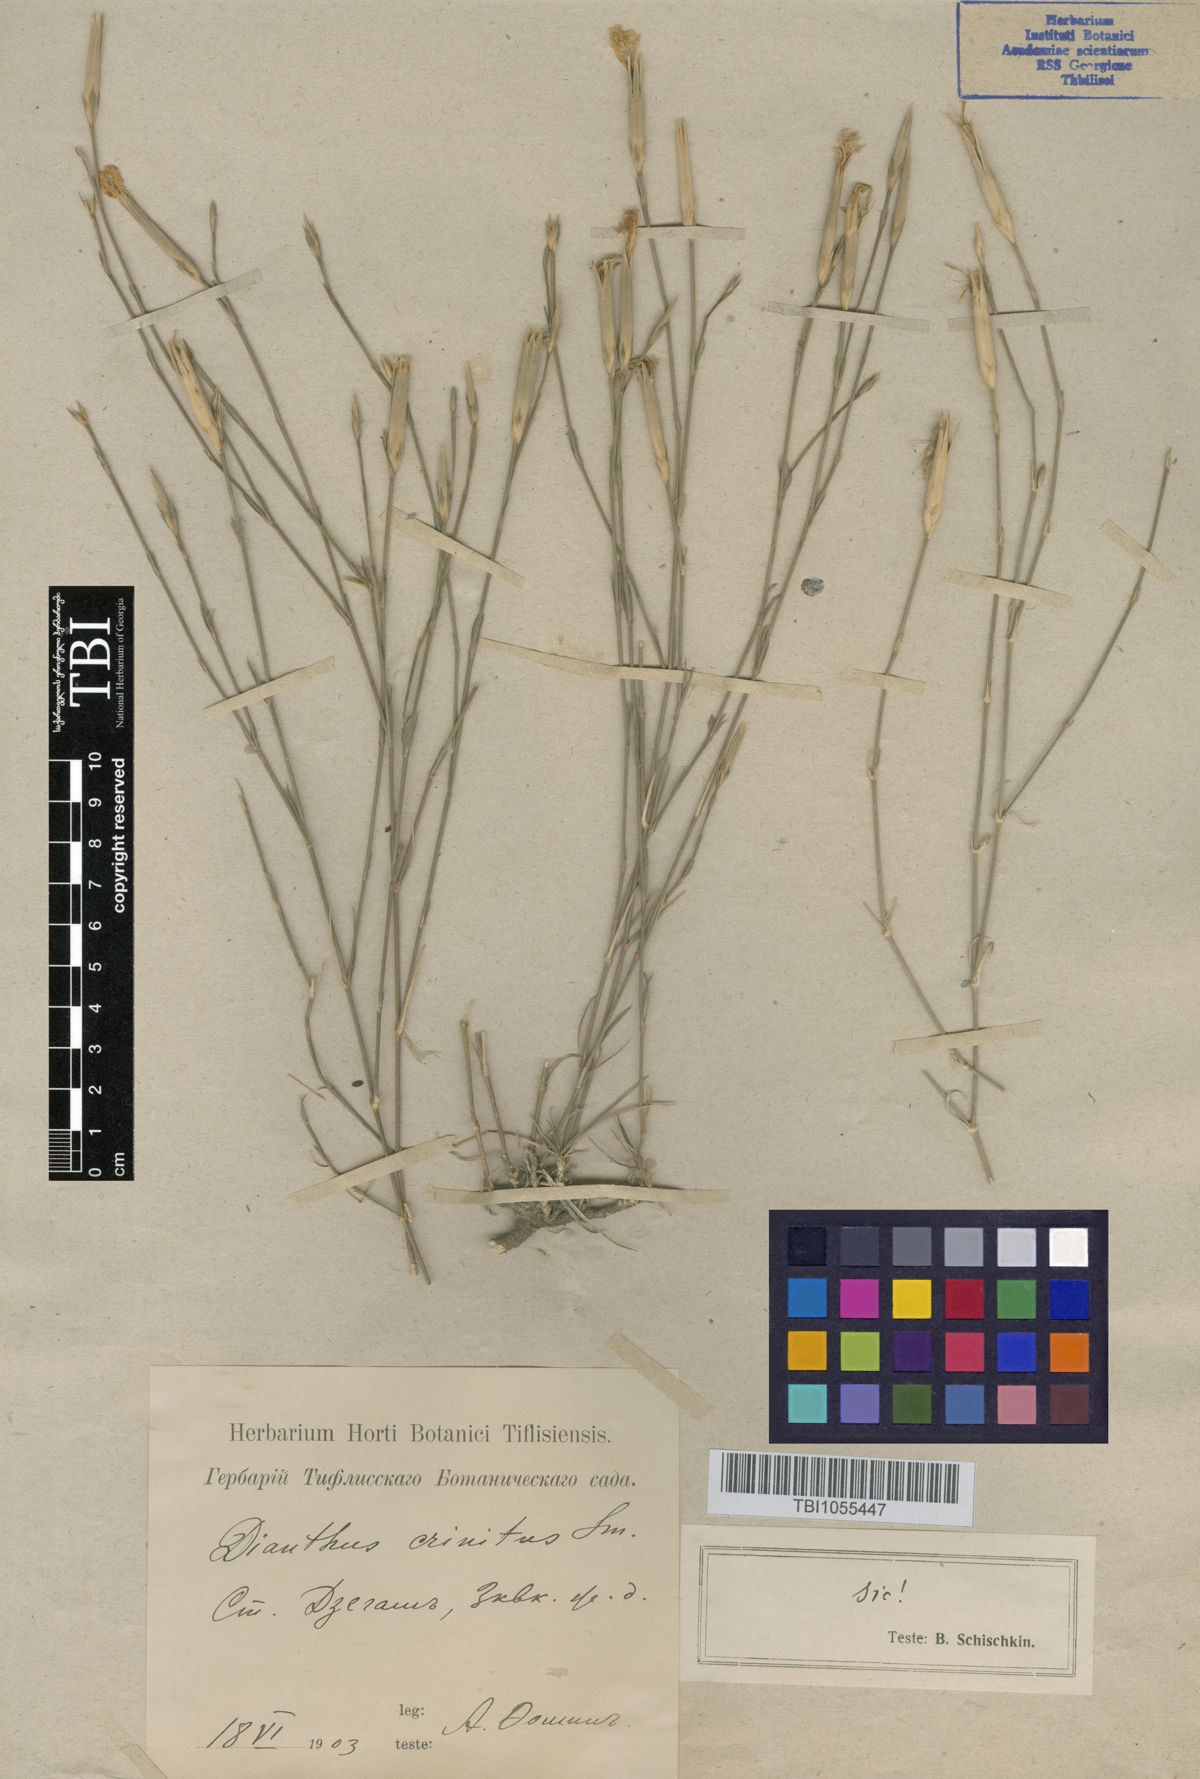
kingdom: Plantae
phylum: Tracheophyta
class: Magnoliopsida
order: Caryophyllales
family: Caryophyllaceae
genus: Dianthus
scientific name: Dianthus crinitus
